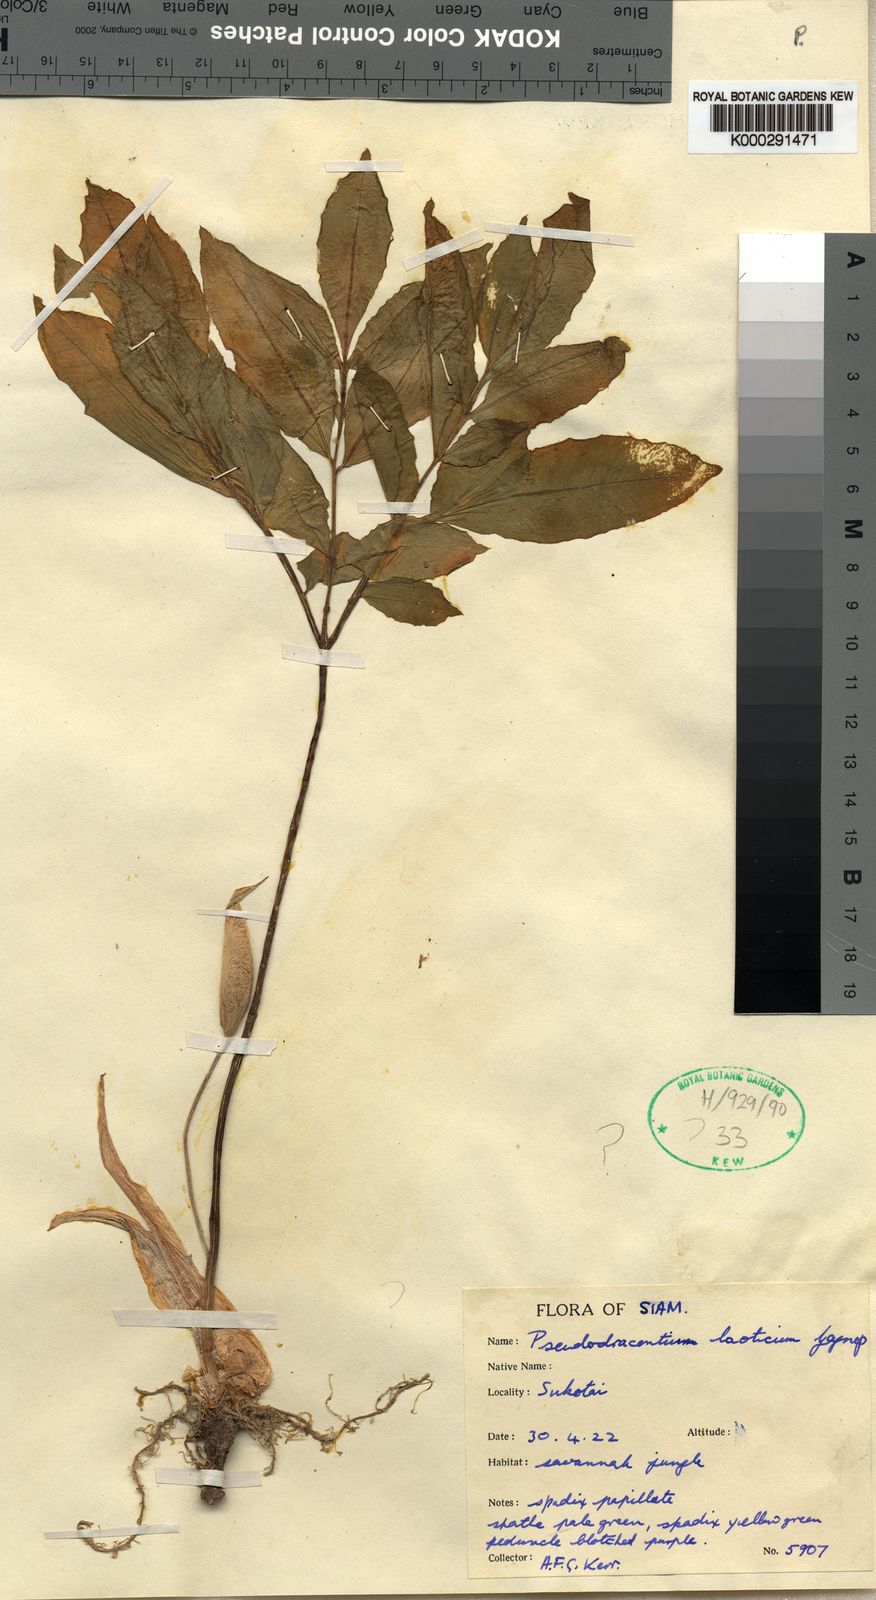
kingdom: Plantae
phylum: Tracheophyta
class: Liliopsida
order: Alismatales
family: Araceae
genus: Amorphophallus
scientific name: Amorphophallus
